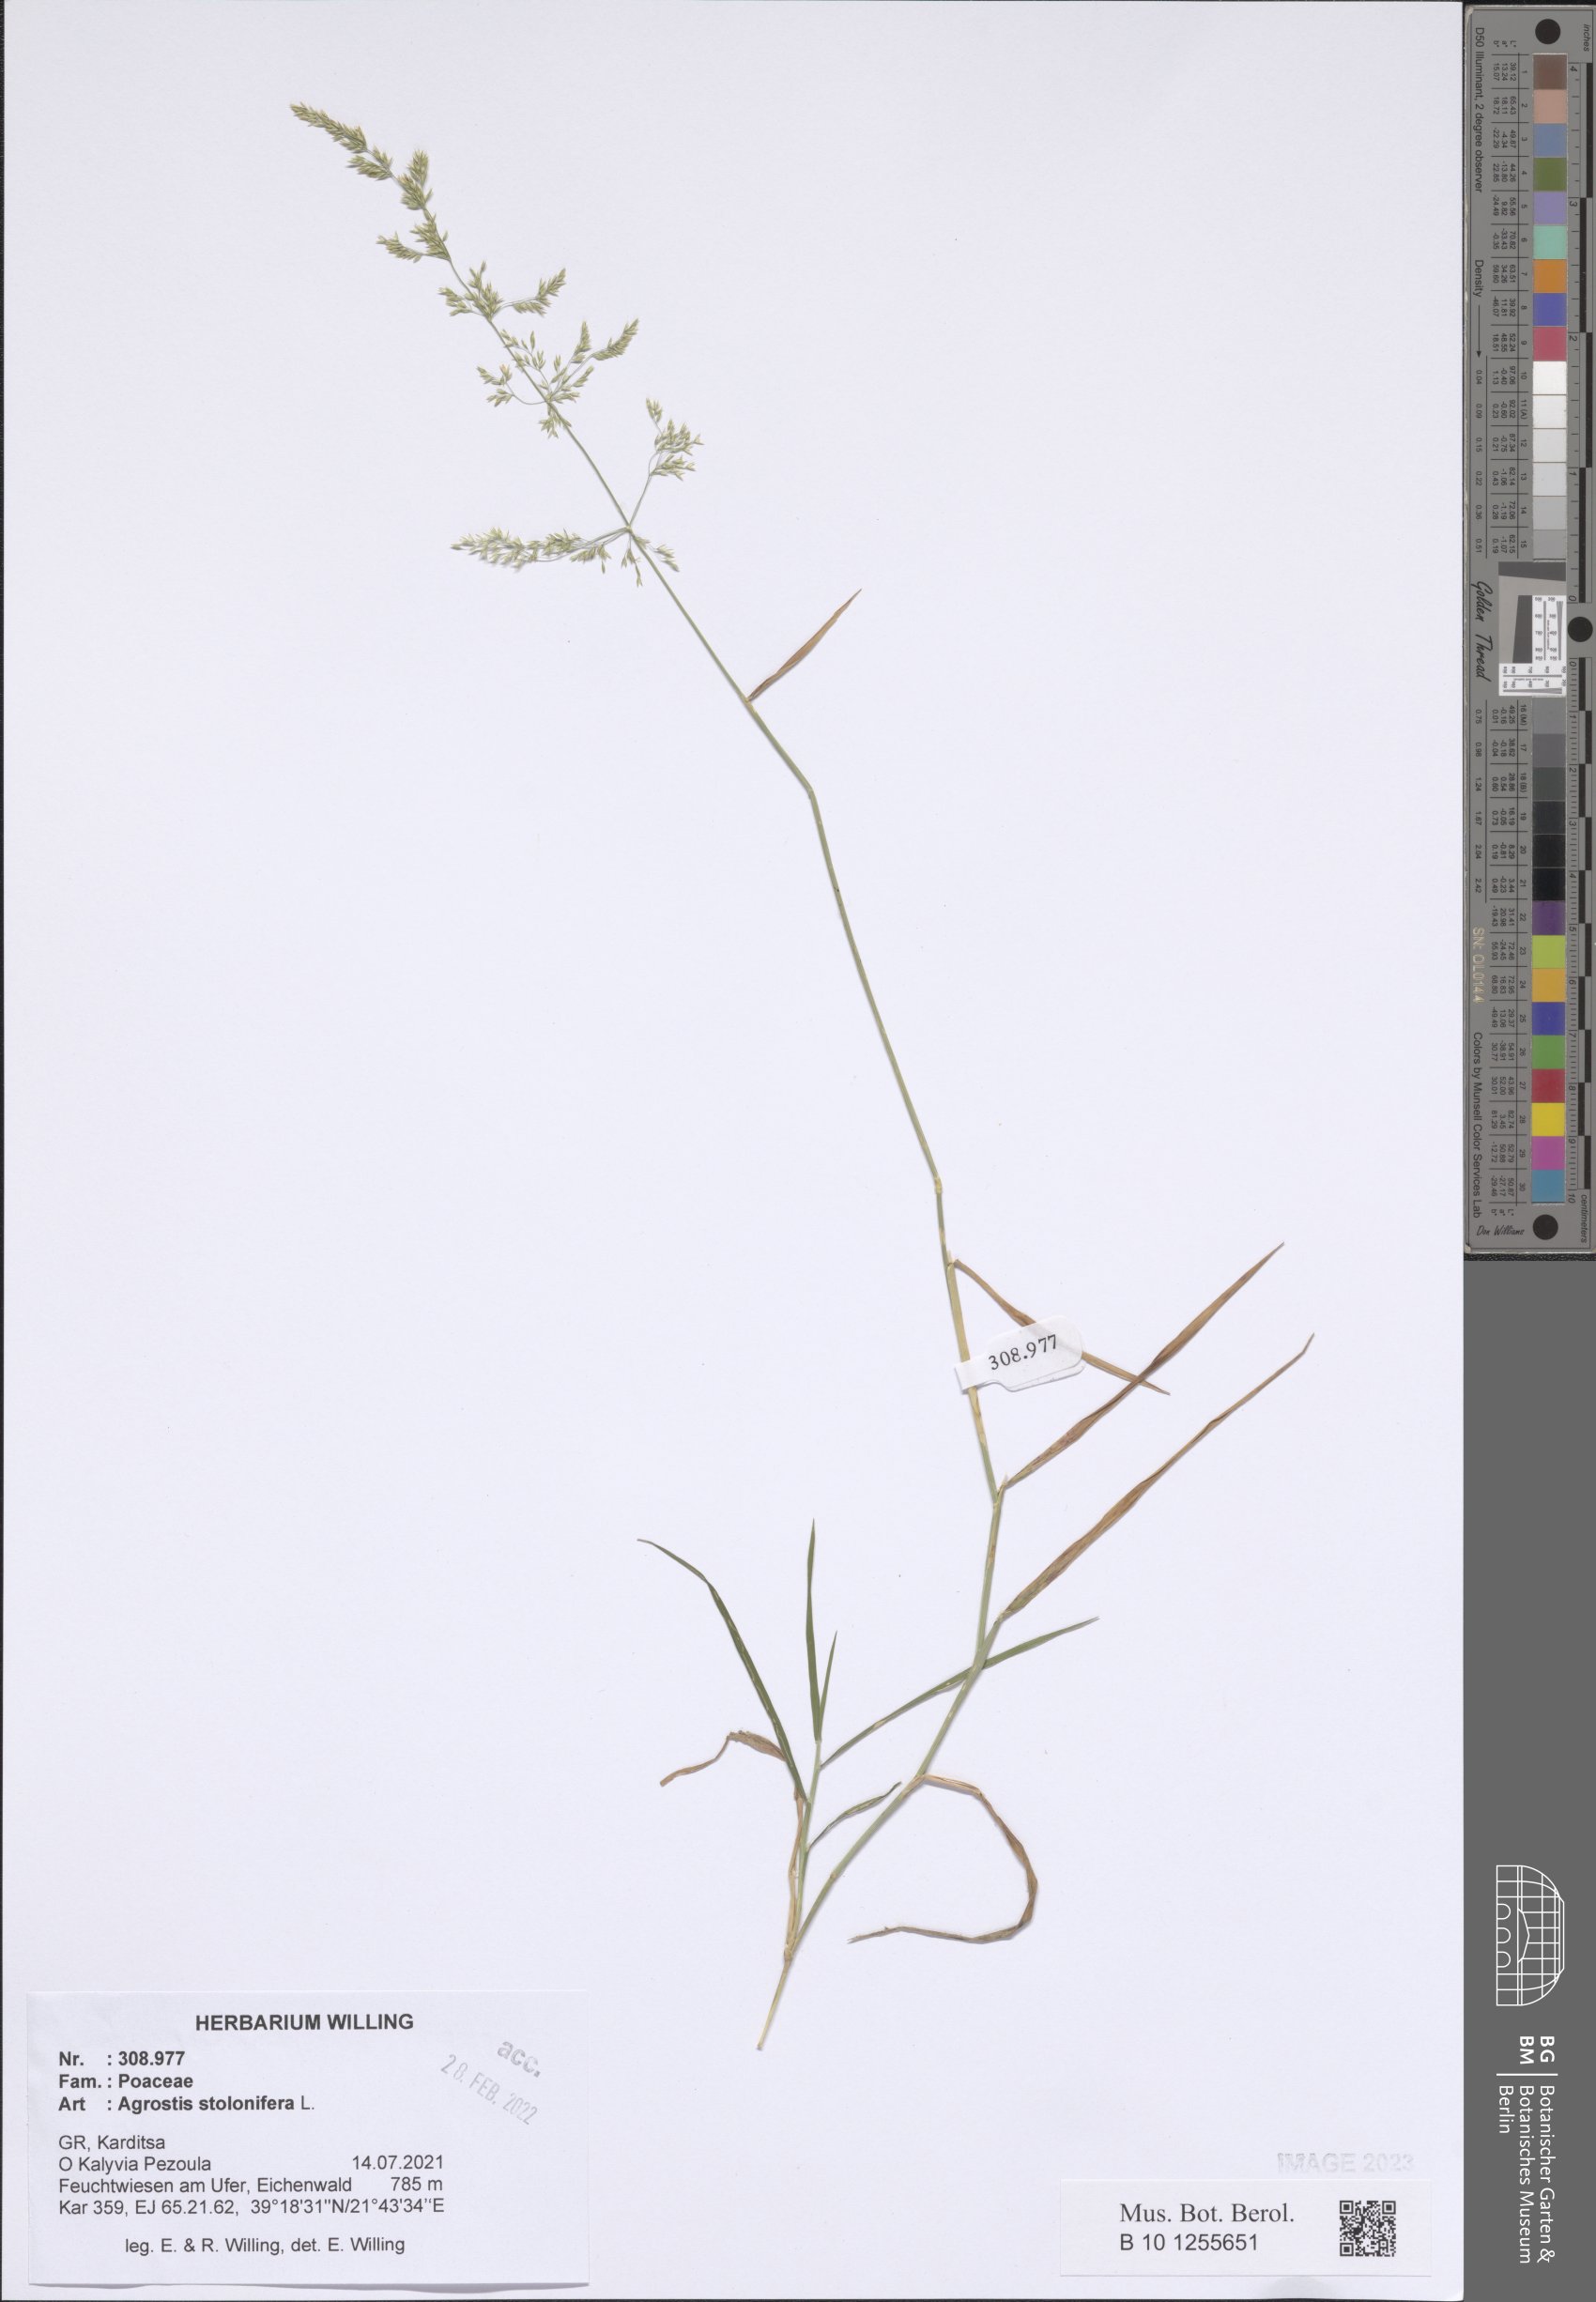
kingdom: Plantae
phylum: Tracheophyta
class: Liliopsida
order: Poales
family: Poaceae
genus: Agrostis
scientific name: Agrostis stolonifera
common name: Creeping bentgrass
